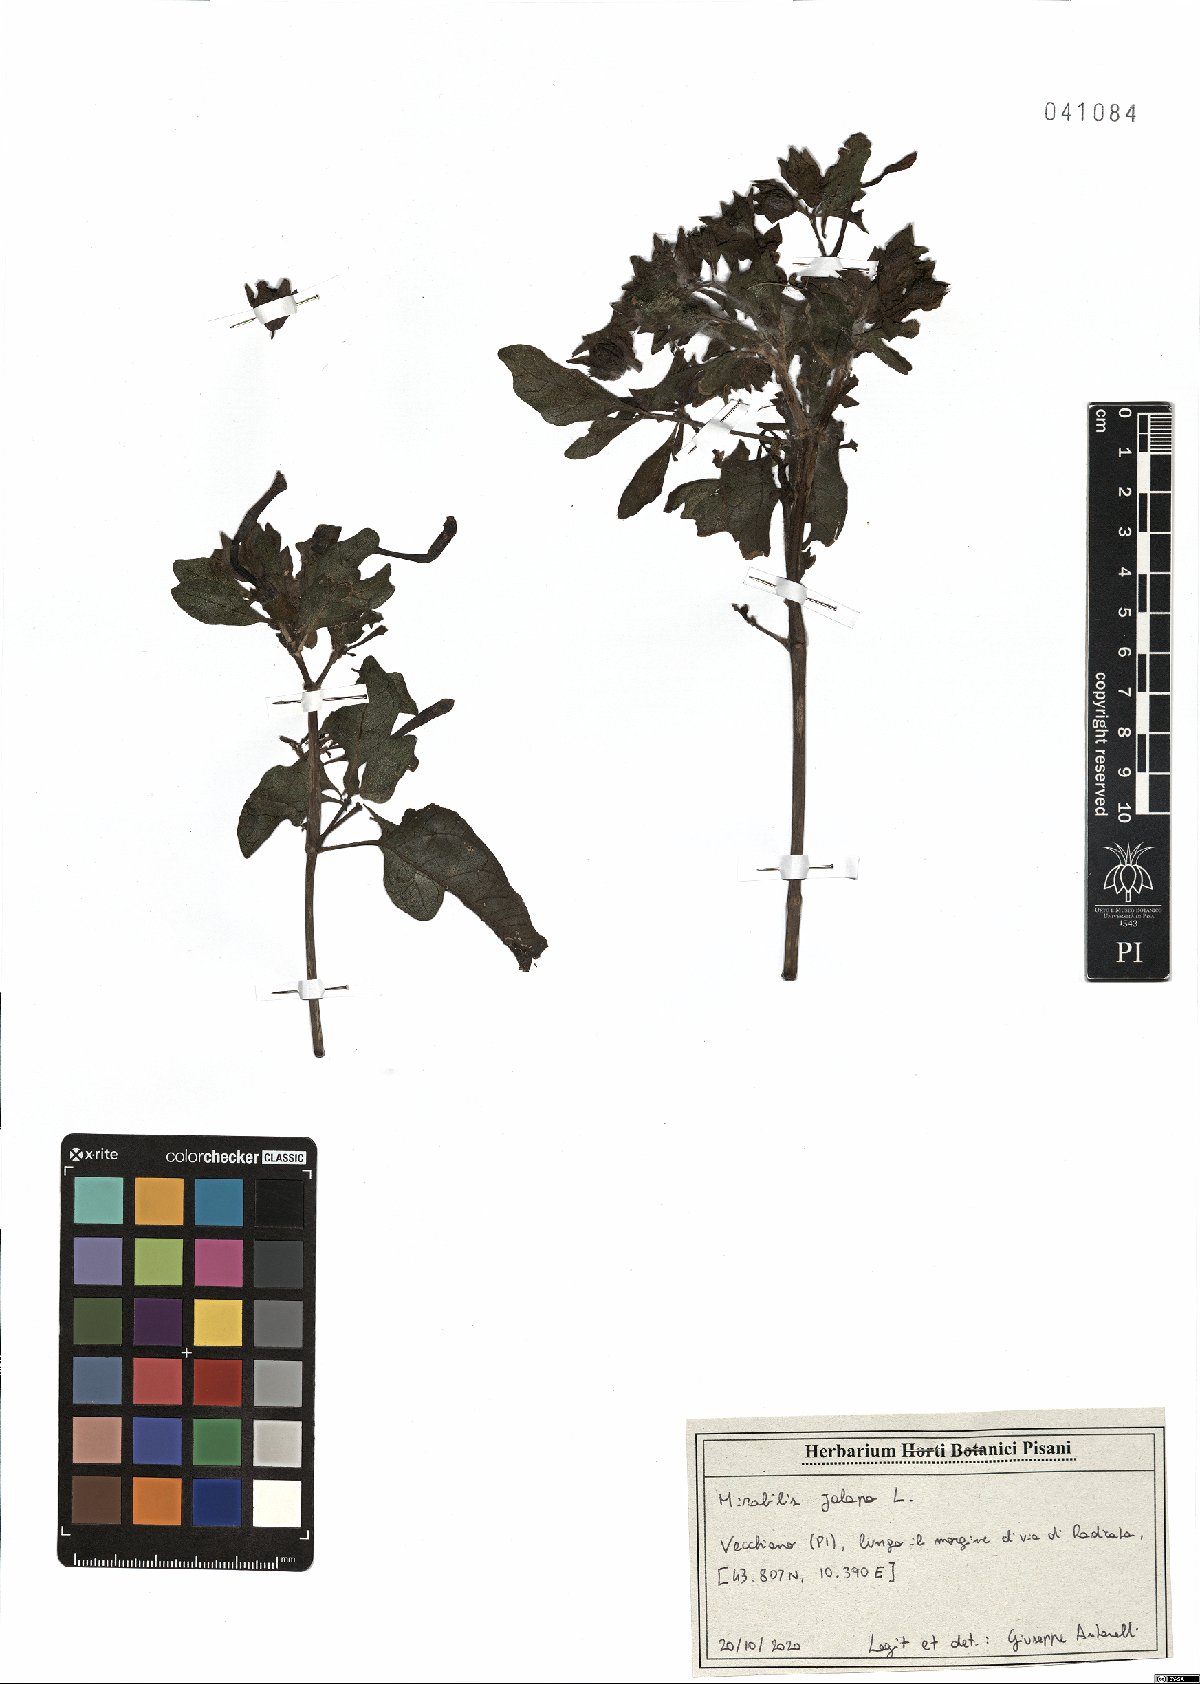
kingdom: Plantae
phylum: Tracheophyta
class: Magnoliopsida
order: Caryophyllales
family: Nyctaginaceae
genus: Mirabilis
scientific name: Mirabilis jalapa
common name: Marvel-of-peru
